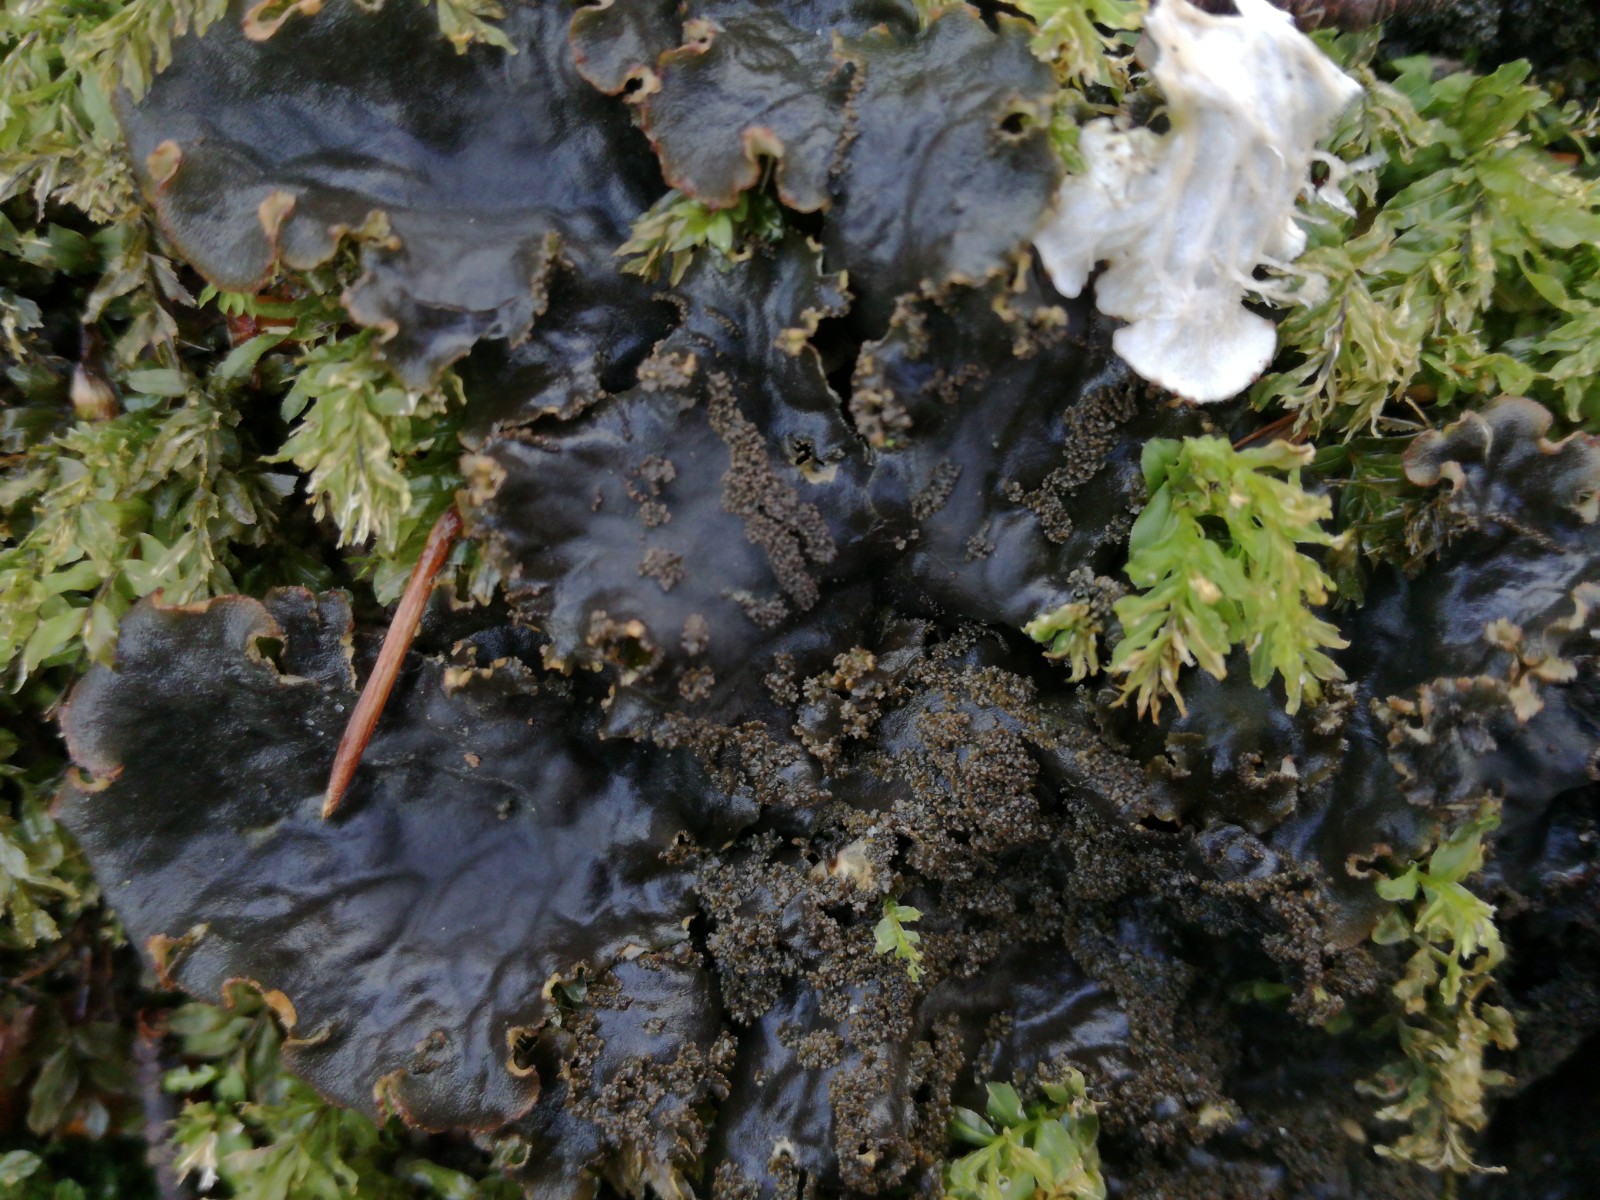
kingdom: Fungi
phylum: Ascomycota
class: Lecanoromycetes
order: Peltigerales
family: Peltigeraceae
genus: Peltigera
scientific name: Peltigera praetextata
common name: kruset skjoldlav
